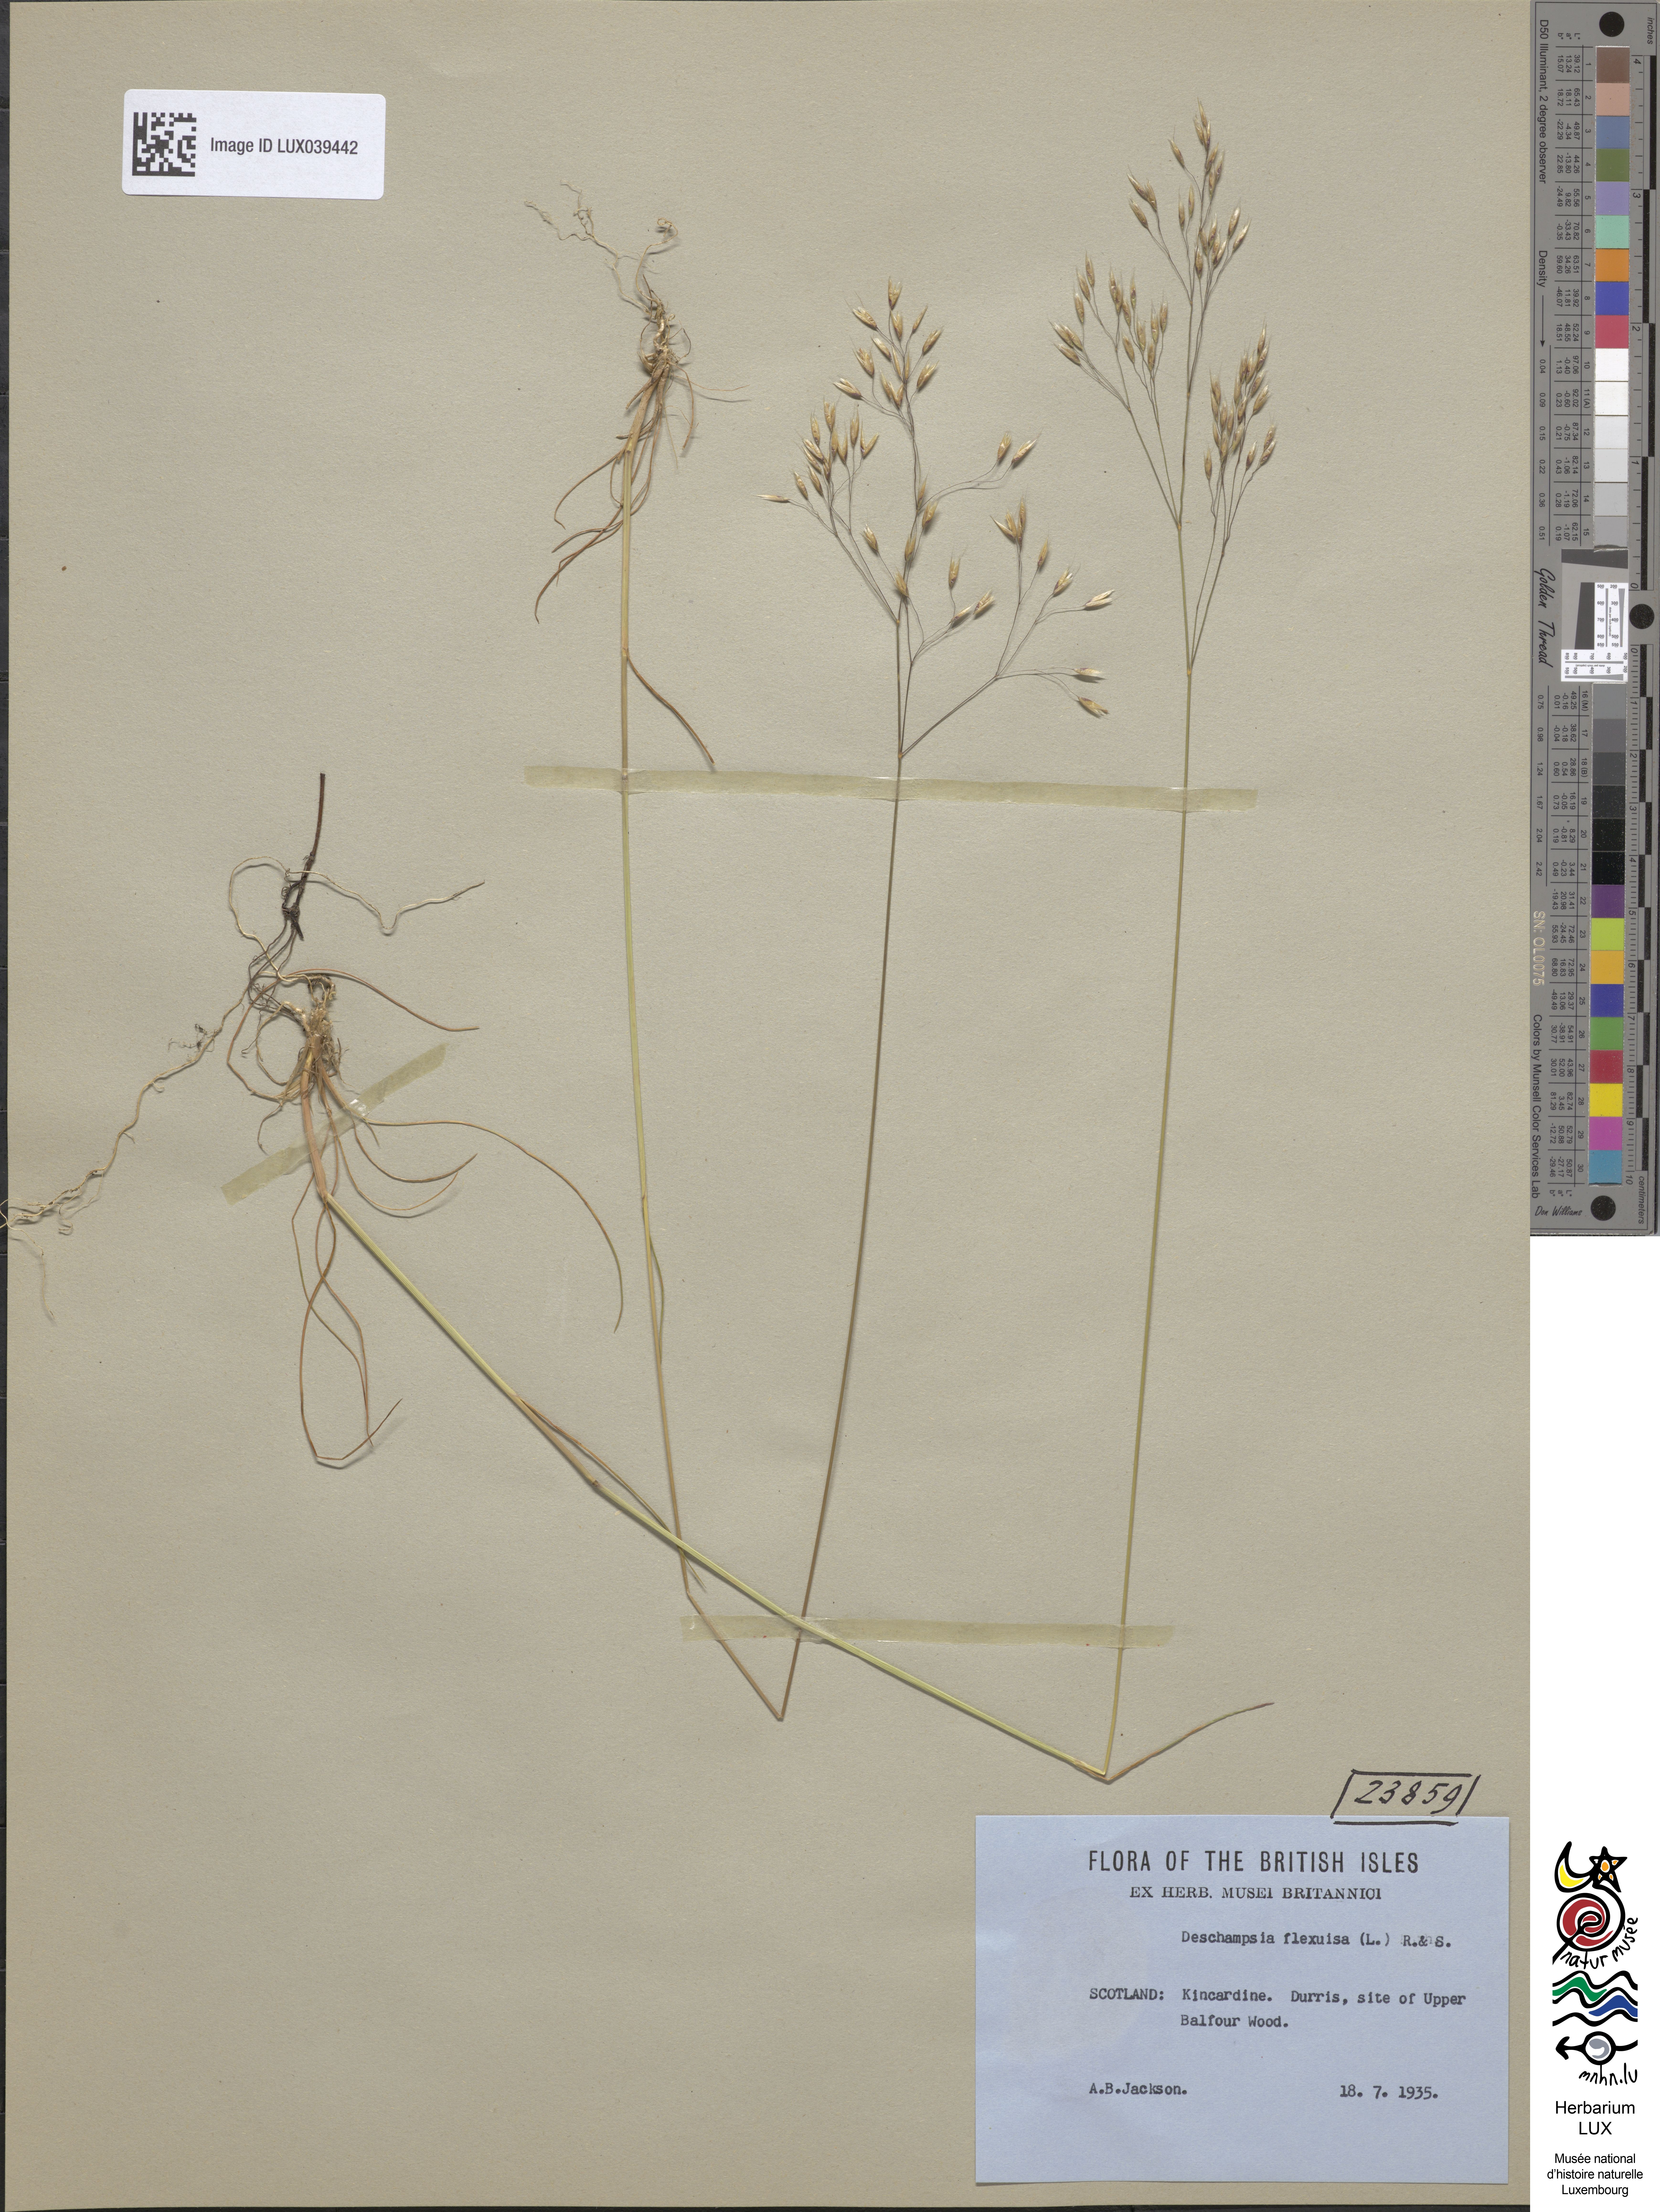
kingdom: Plantae
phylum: Tracheophyta
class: Liliopsida
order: Poales
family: Poaceae
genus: Avenella
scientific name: Avenella flexuosa
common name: Wavy hairgrass
